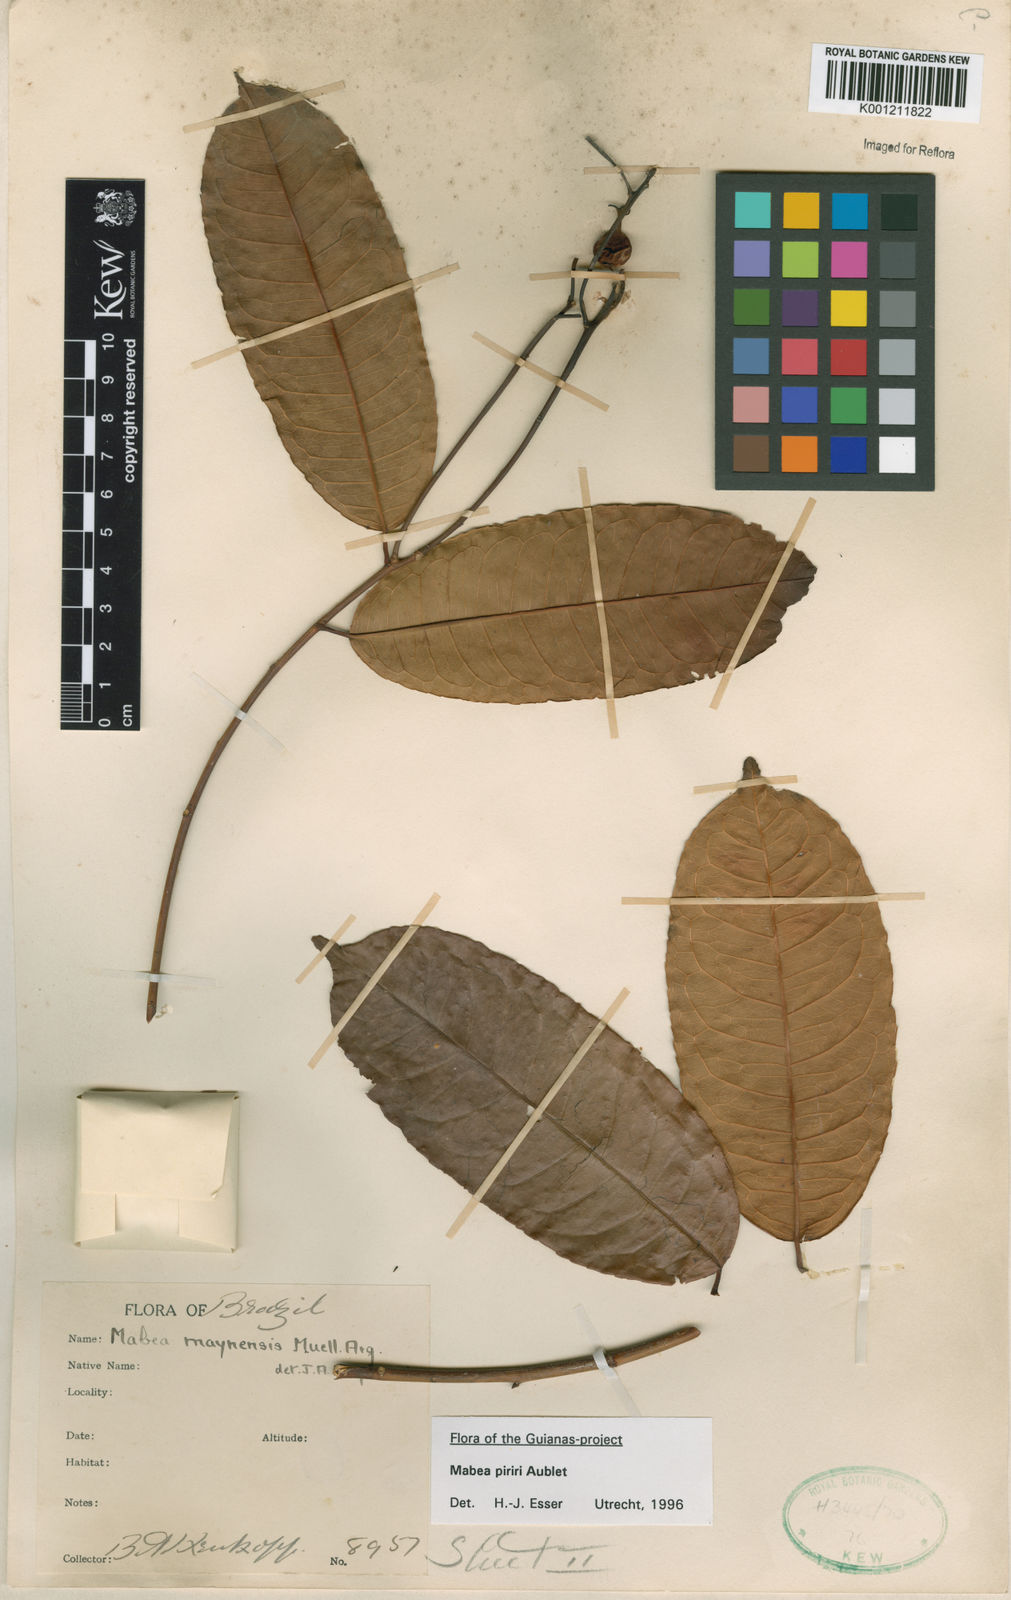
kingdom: Plantae
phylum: Tracheophyta
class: Magnoliopsida
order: Malpighiales
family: Euphorbiaceae
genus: Mabea
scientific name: Mabea piriri
